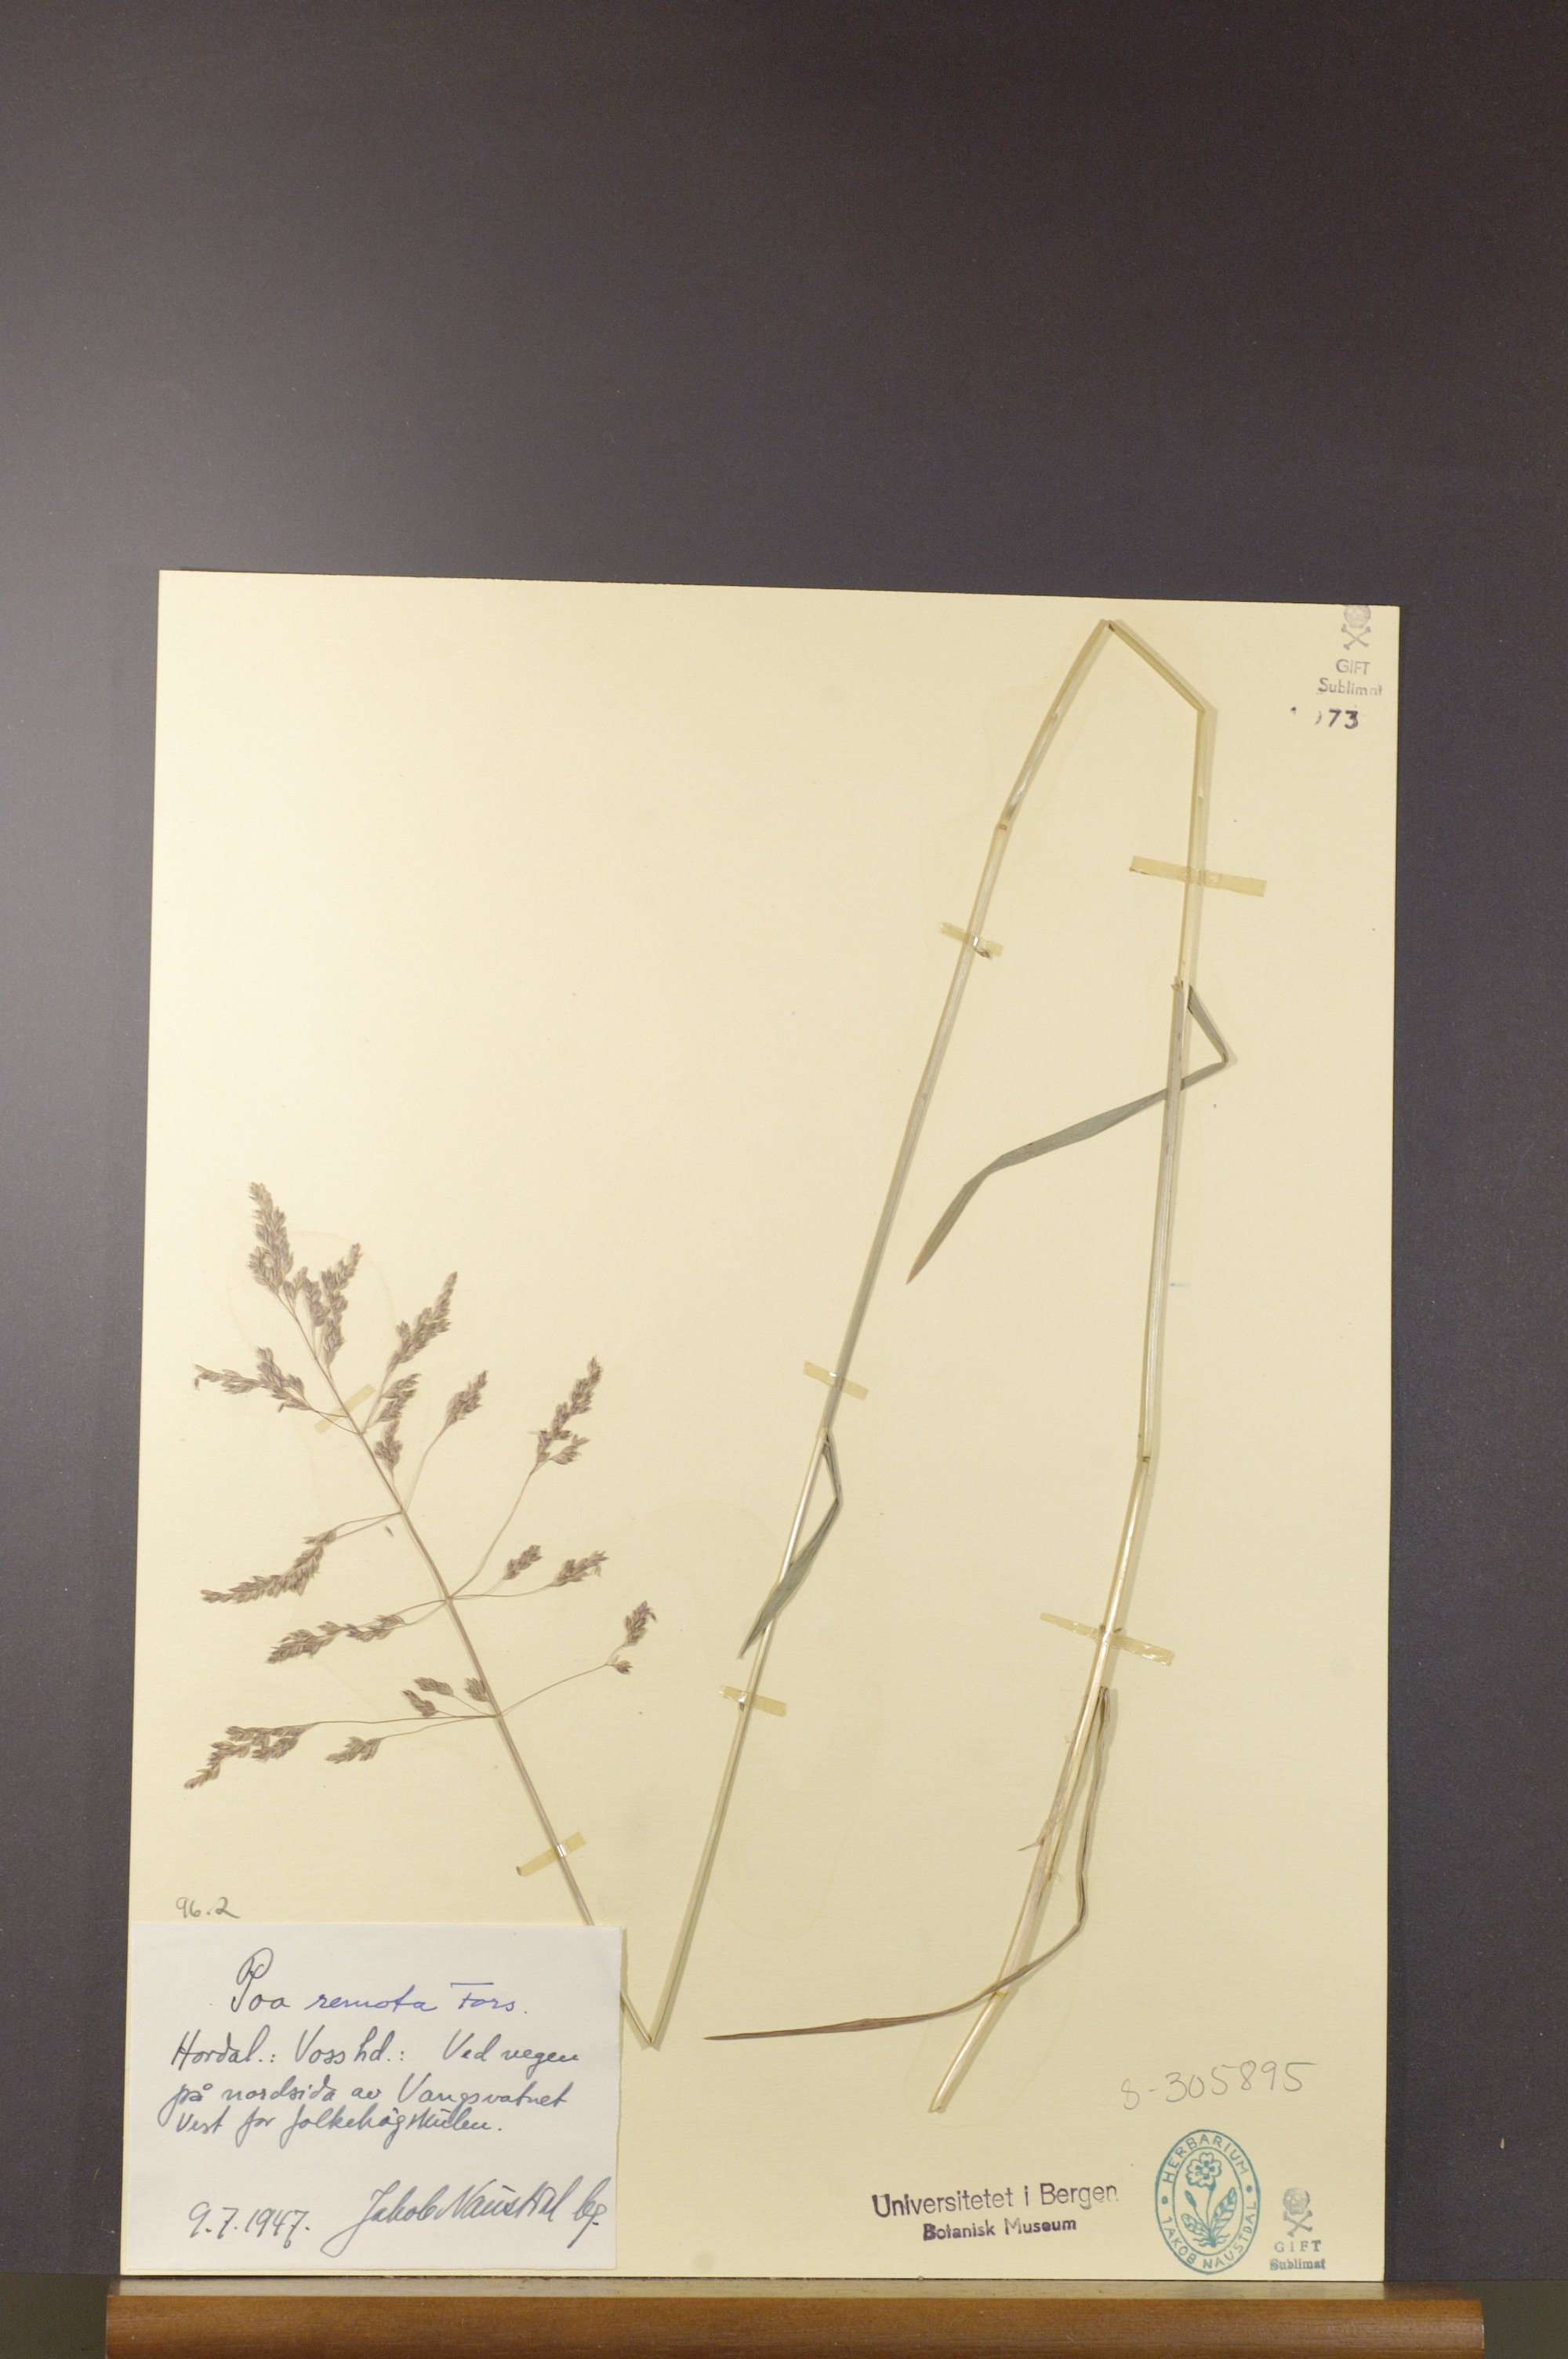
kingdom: Plantae
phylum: Tracheophyta
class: Liliopsida
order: Poales
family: Poaceae
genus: Poa
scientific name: Poa
